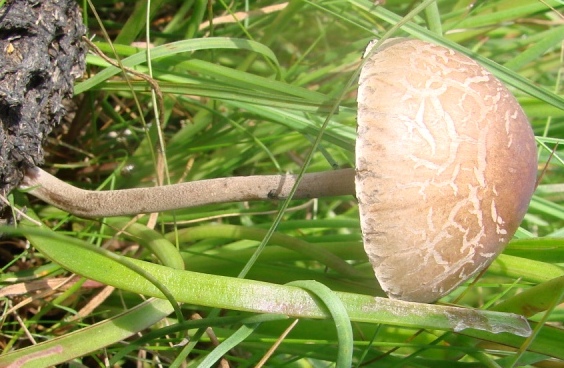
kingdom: Fungi
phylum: Basidiomycota
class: Agaricomycetes
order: Agaricales
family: Bolbitiaceae
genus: Panaeolus
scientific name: Panaeolus papilionaceus
